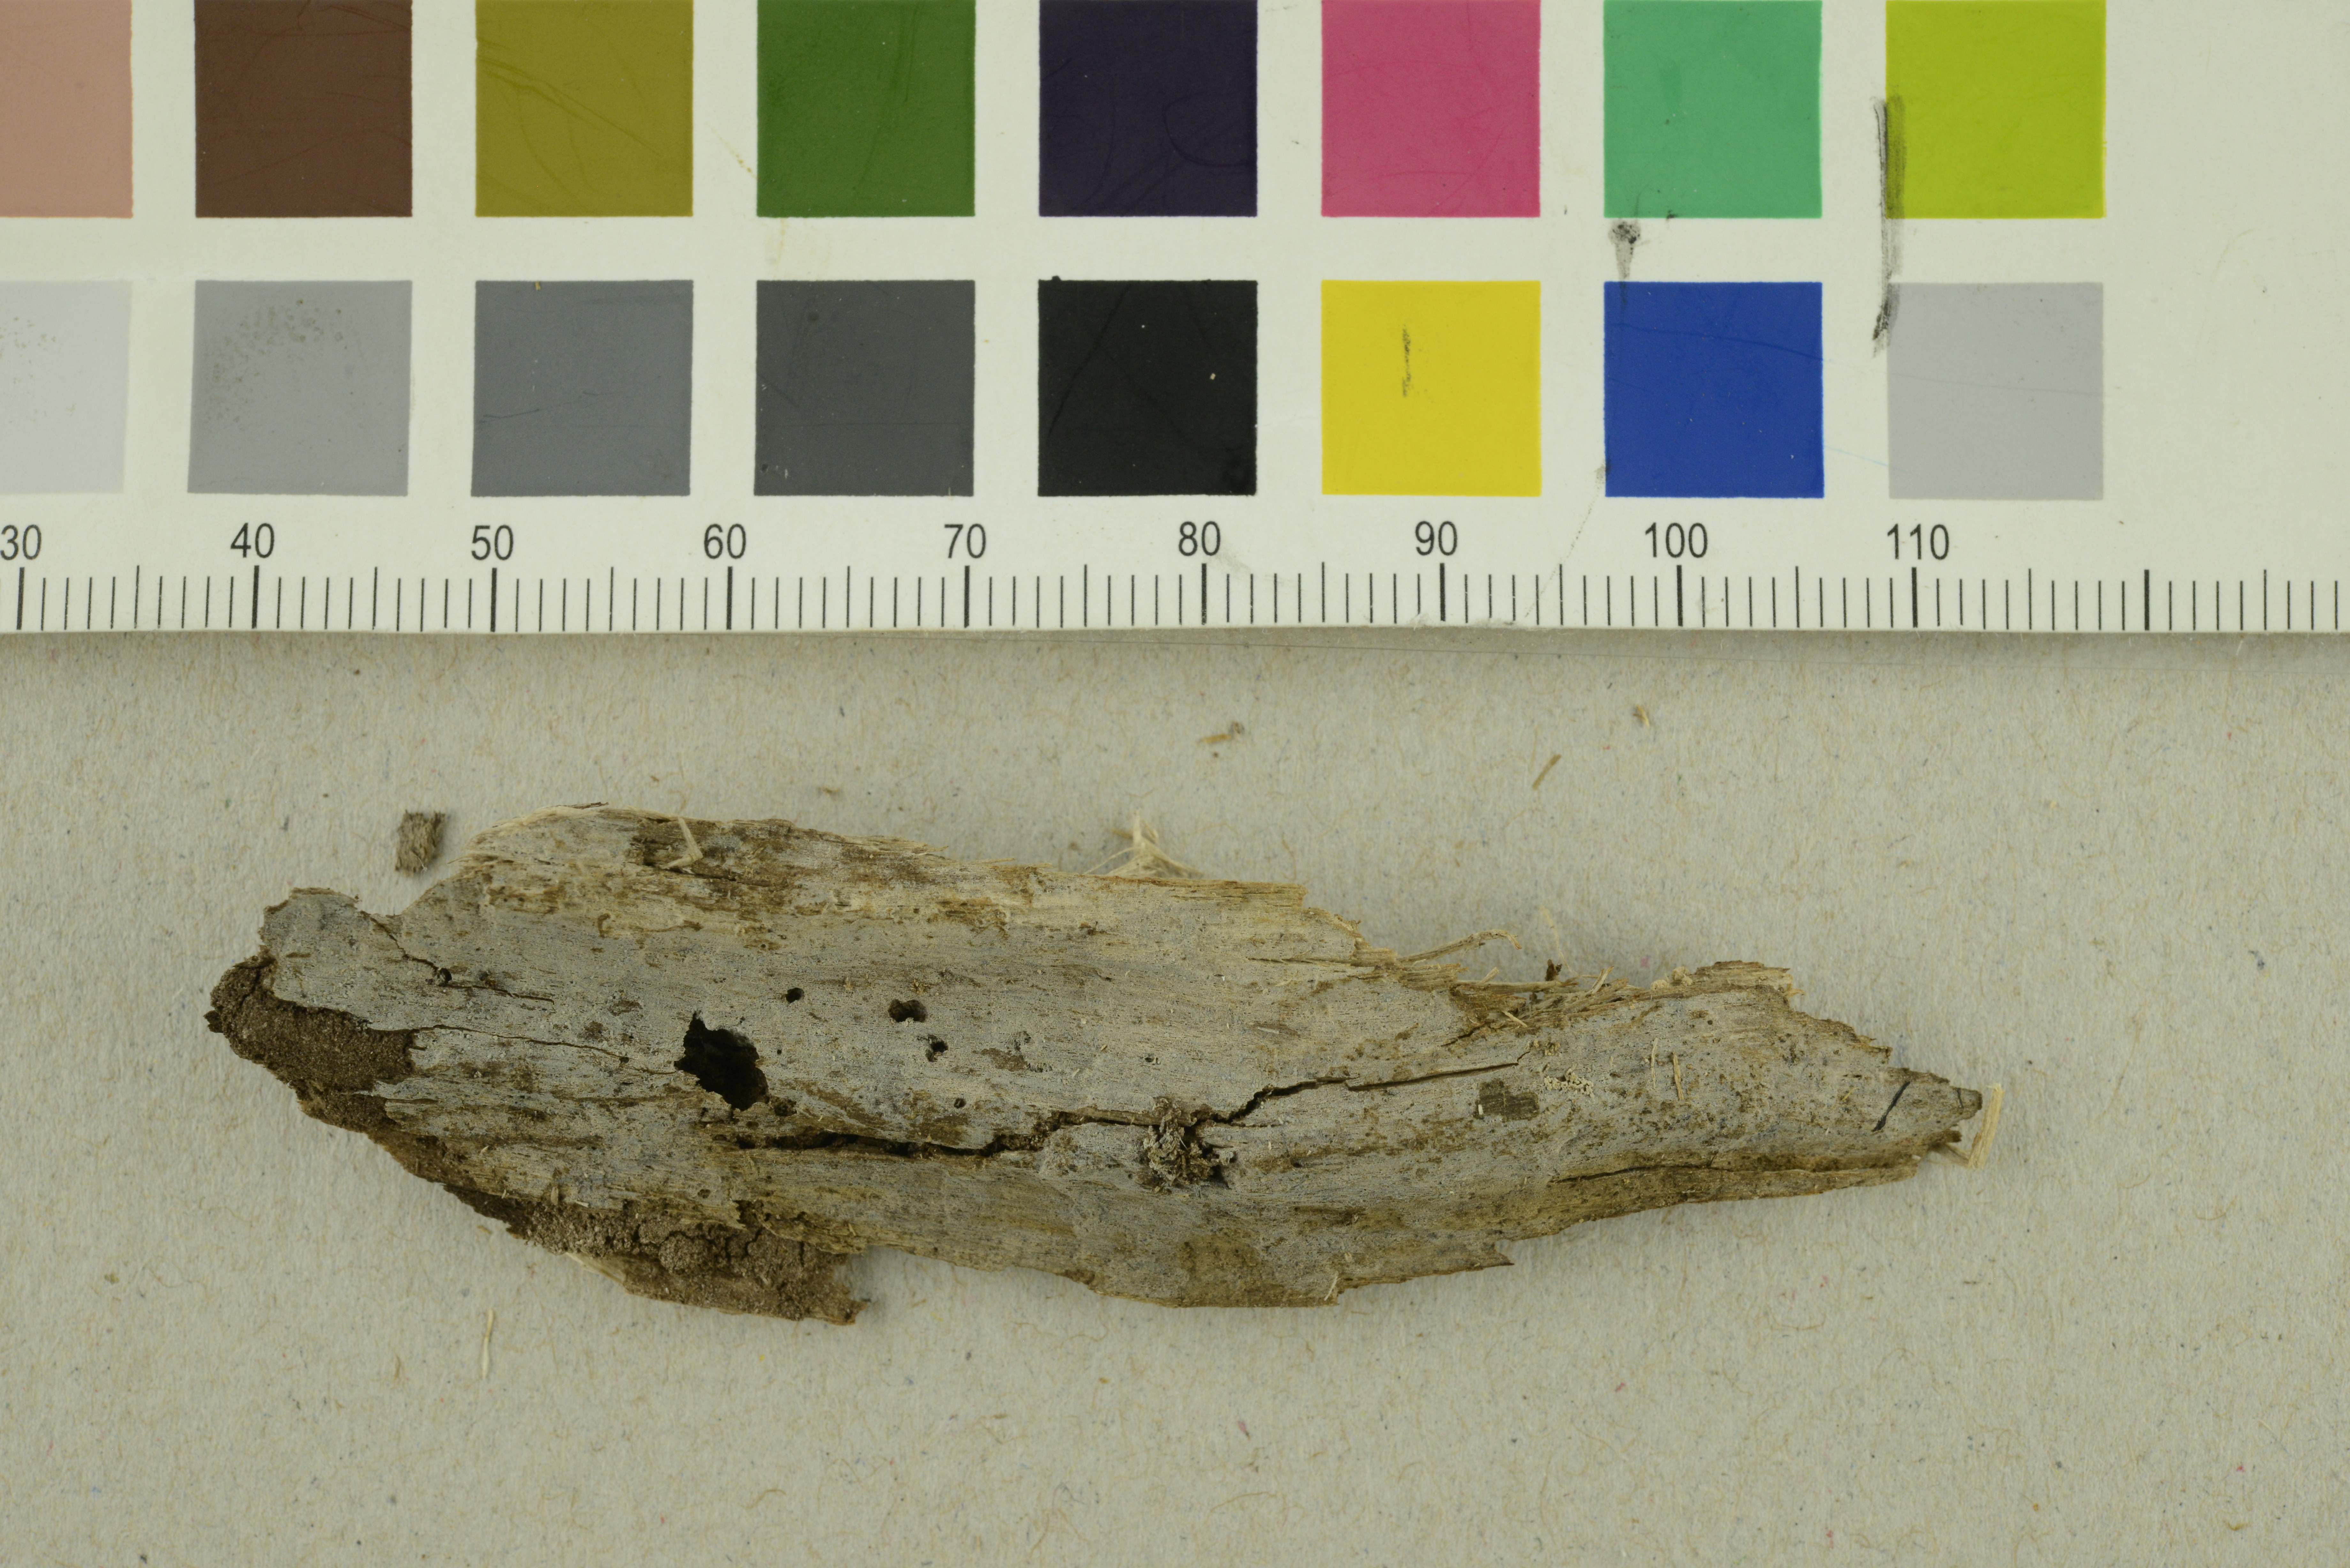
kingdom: Fungi
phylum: Basidiomycota
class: Agaricomycetes
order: Auriculariales
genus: Basidiodendron
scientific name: Basidiodendron caesiocinereum
